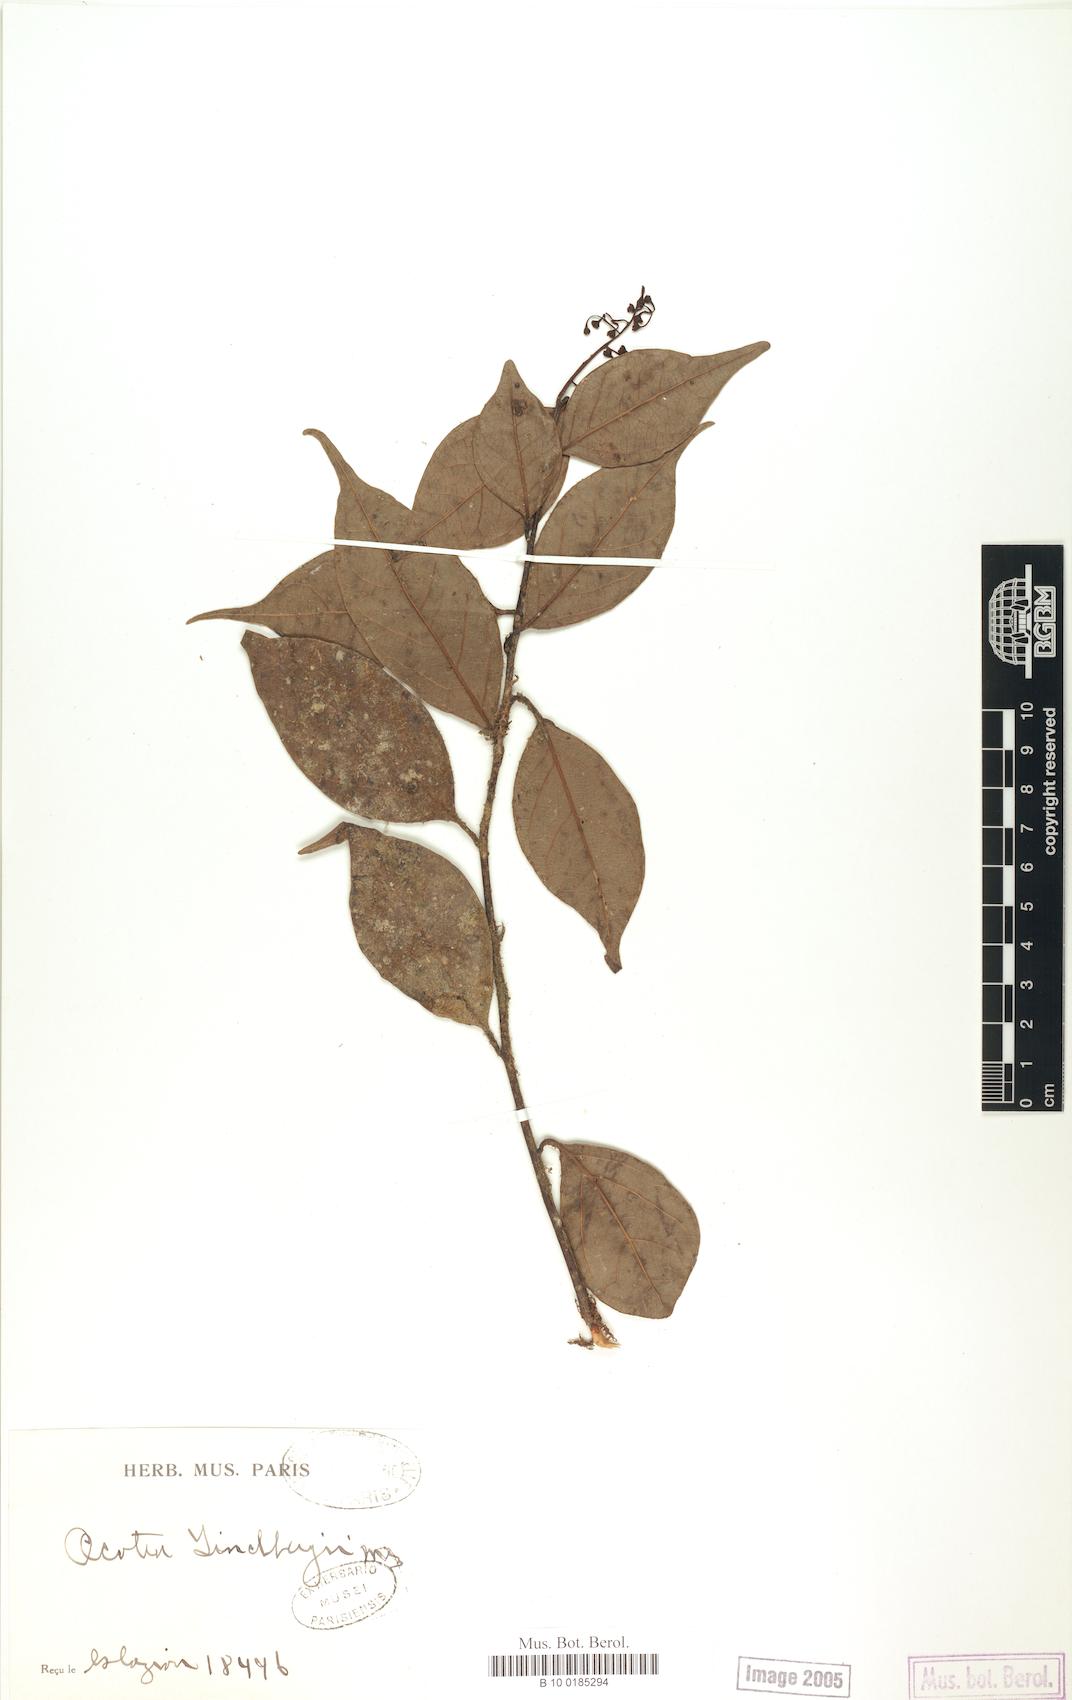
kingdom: Plantae
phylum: Tracheophyta
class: Magnoliopsida
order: Laurales
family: Lauraceae
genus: Ocotea
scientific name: Ocotea lindbergii
